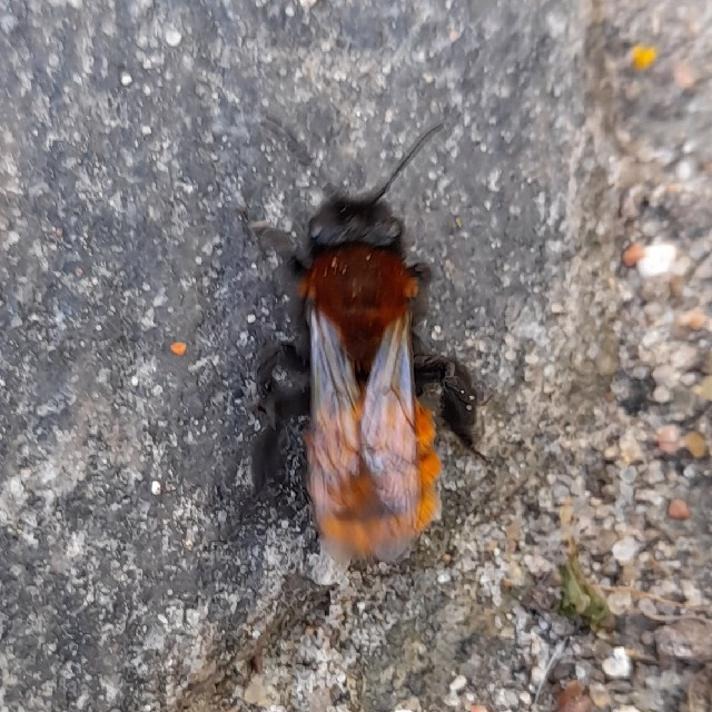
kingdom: Animalia
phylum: Arthropoda
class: Insecta
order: Hymenoptera
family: Andrenidae
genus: Andrena
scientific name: Andrena fulva
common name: Rødpelset jordbi
